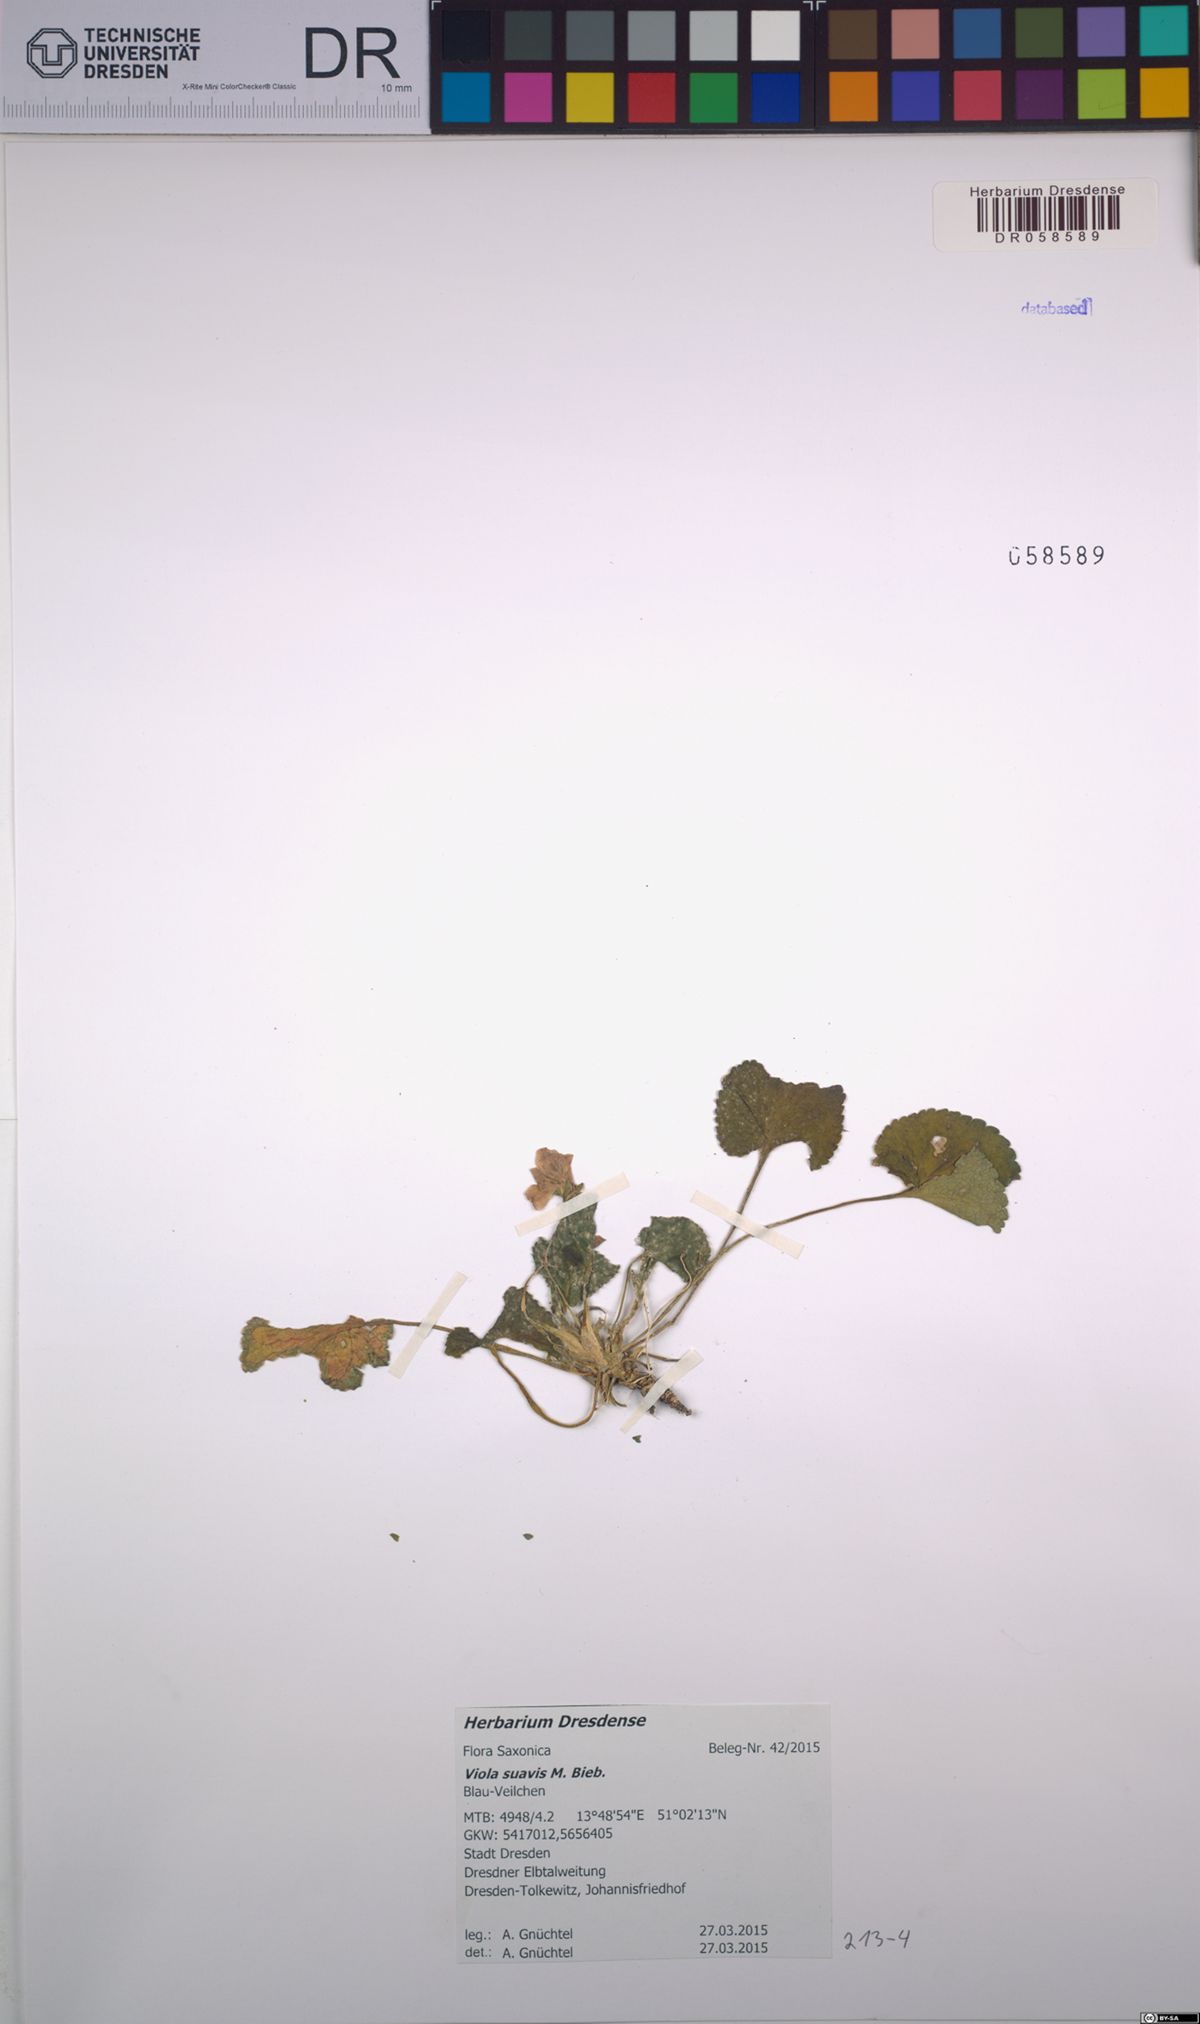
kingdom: Plantae
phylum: Tracheophyta
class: Magnoliopsida
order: Malpighiales
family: Violaceae
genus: Viola
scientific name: Viola suavis
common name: Russian violet
